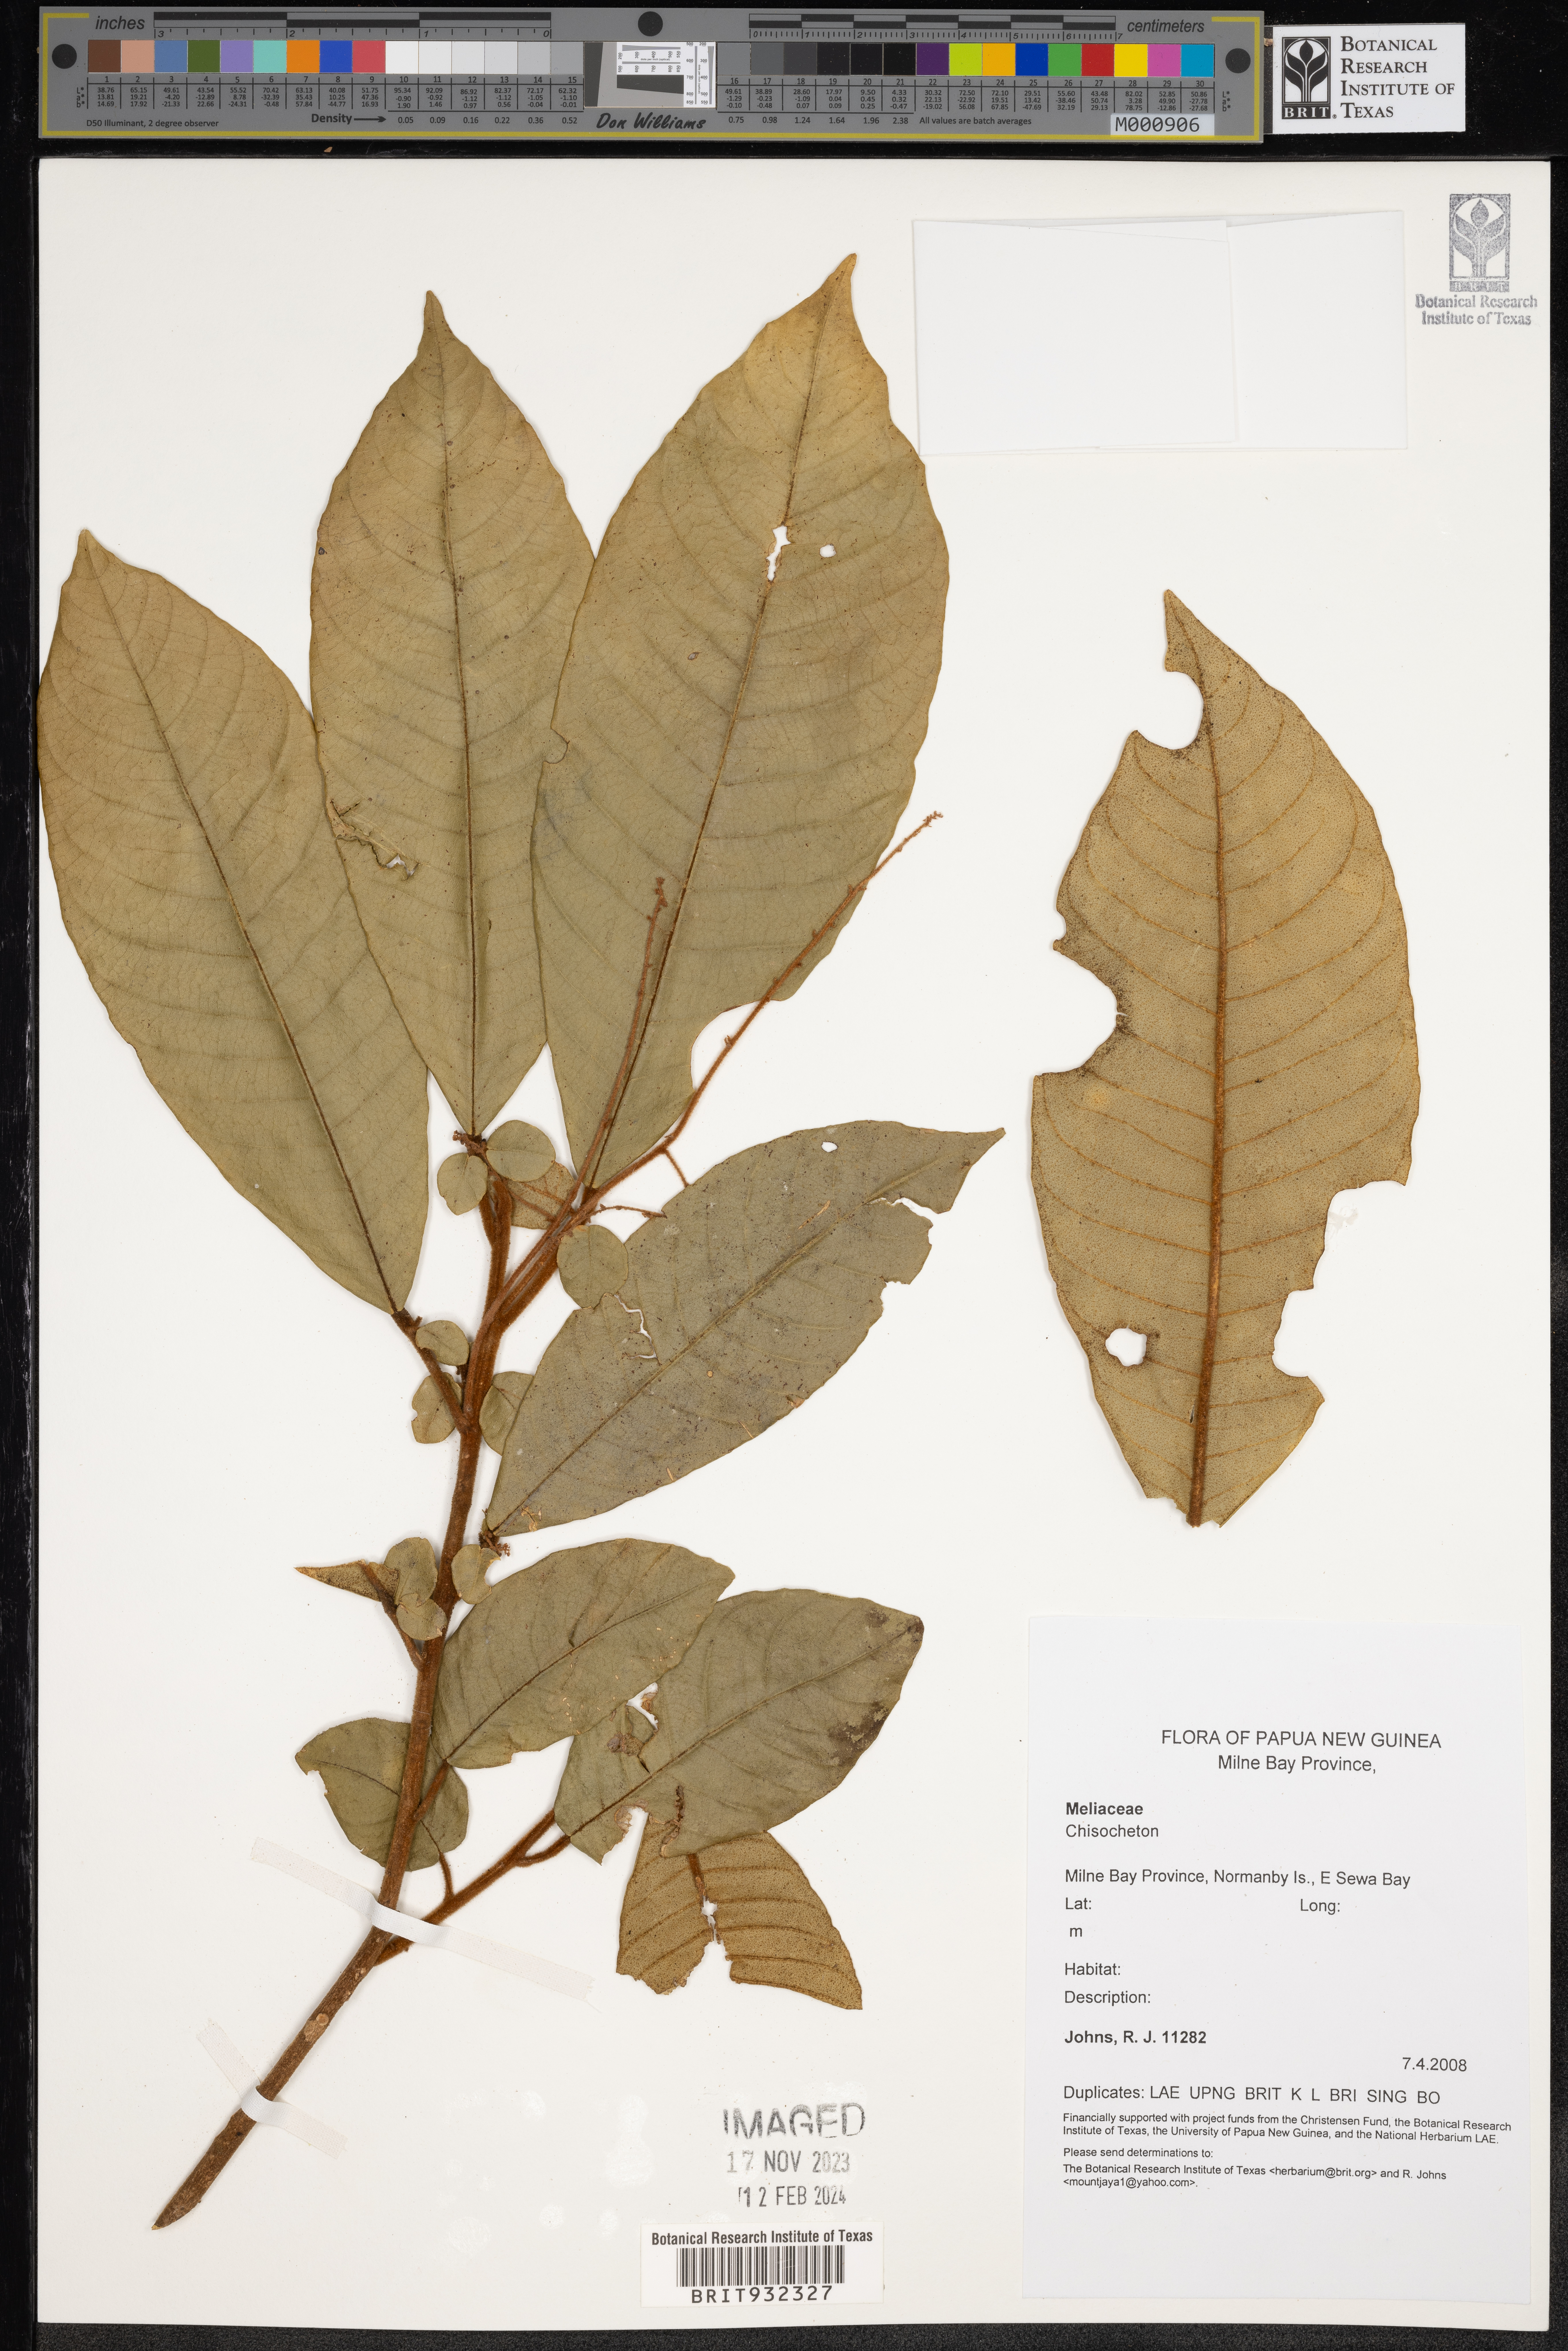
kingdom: Plantae
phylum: Tracheophyta
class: Magnoliopsida
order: Sapindales
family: Meliaceae
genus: Chisocheton
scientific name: Chisocheton
